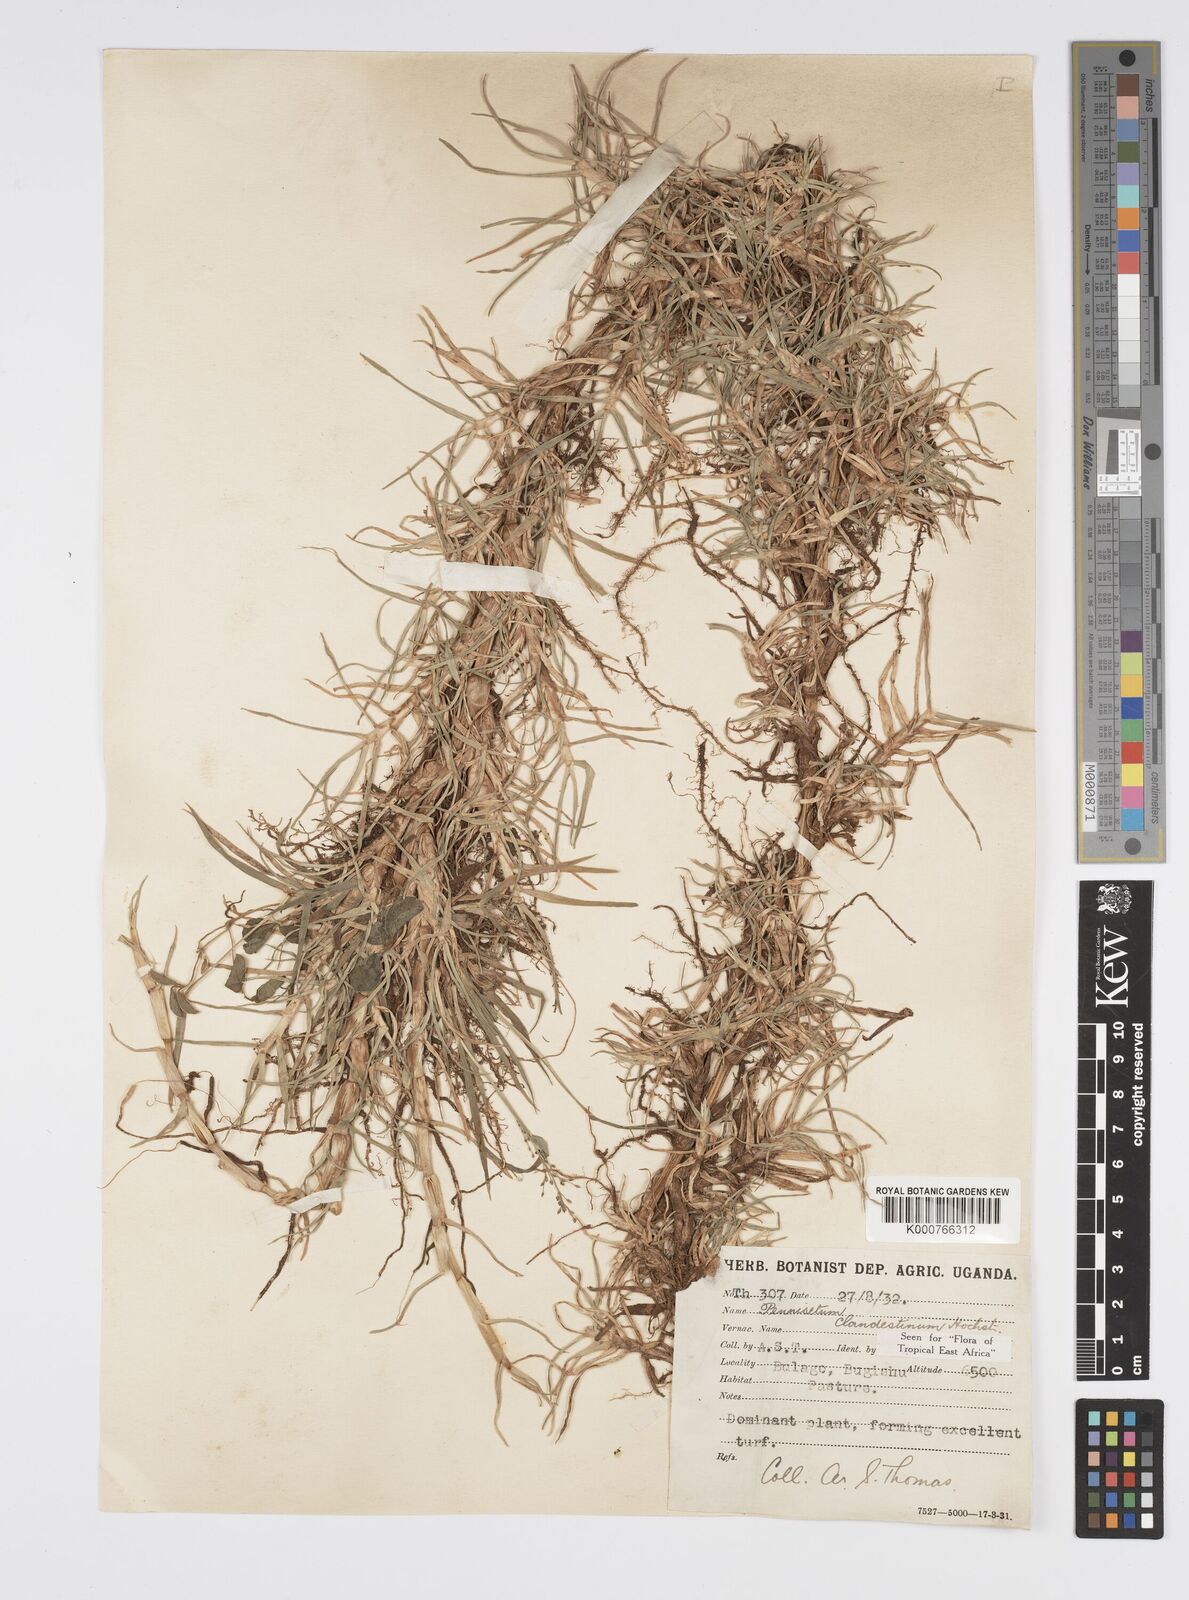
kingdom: Plantae
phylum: Tracheophyta
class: Liliopsida
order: Poales
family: Poaceae
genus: Cenchrus
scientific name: Cenchrus clandestinus
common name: Kikuyugrass
